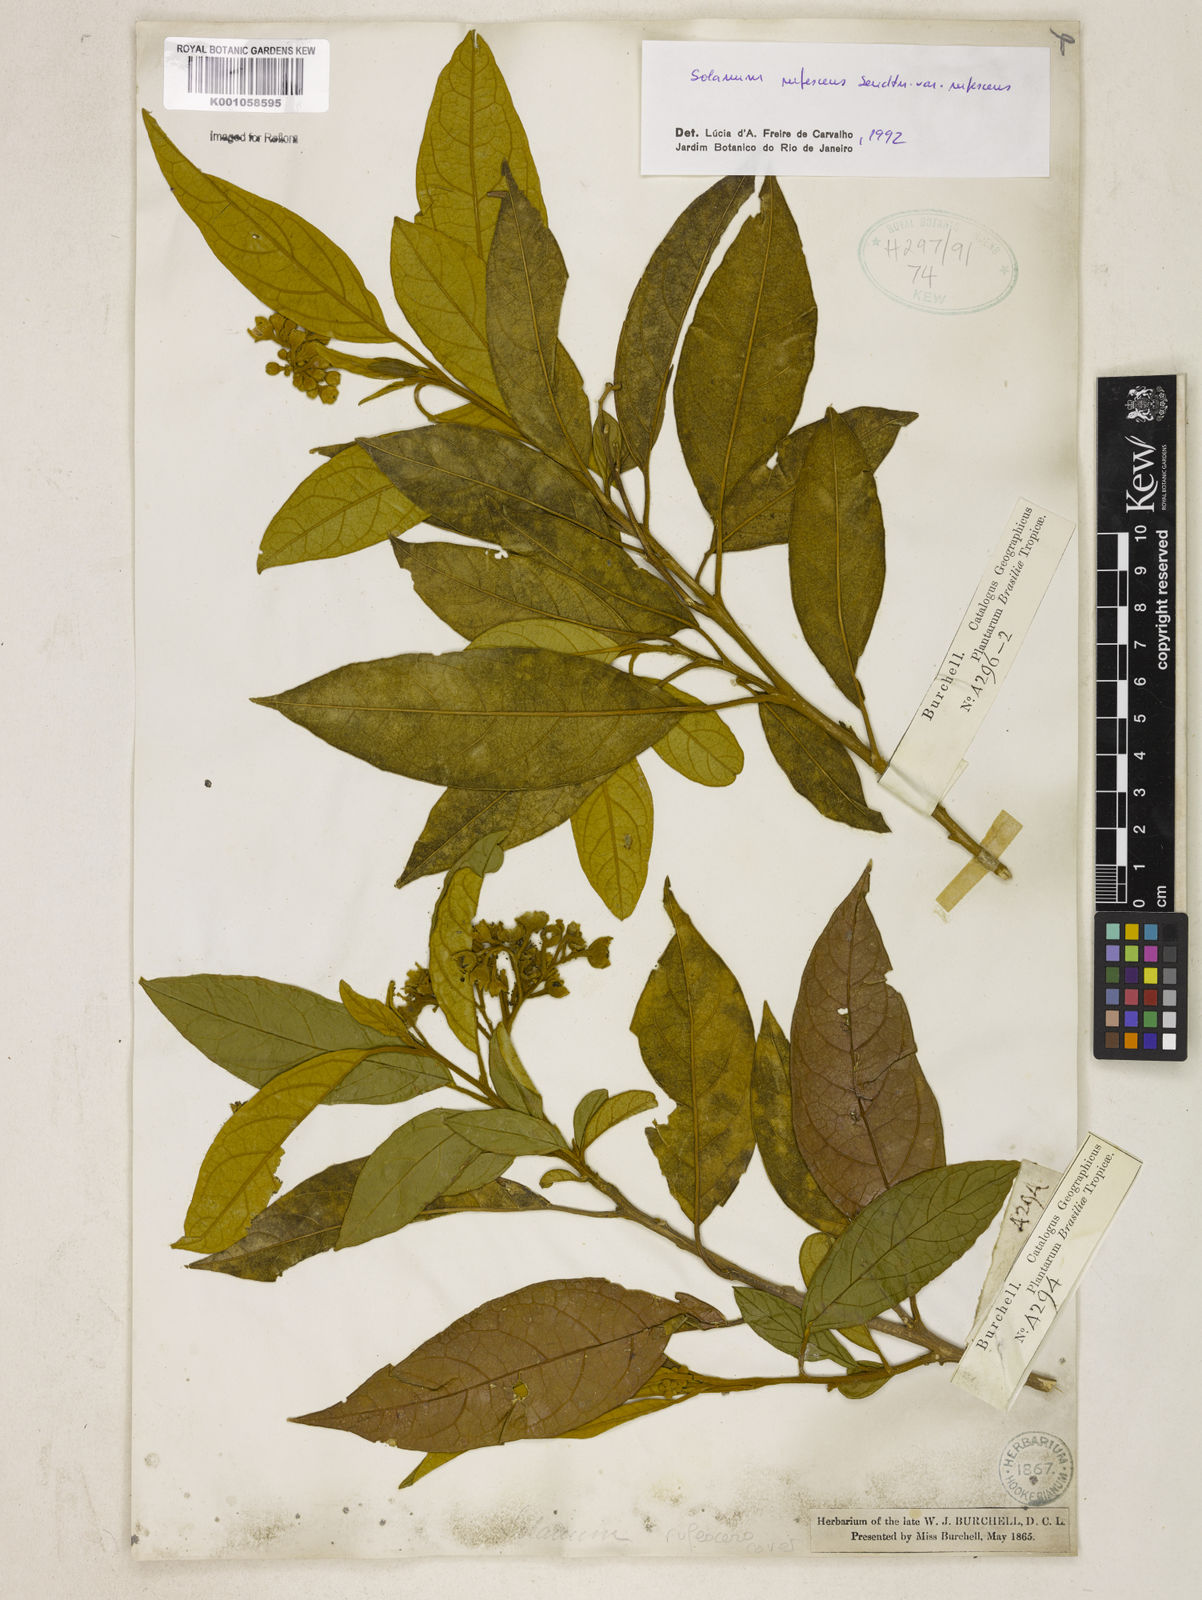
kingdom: Plantae
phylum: Tracheophyta
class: Magnoliopsida
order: Solanales
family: Solanaceae
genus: Solanum
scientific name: Solanum rufescens
